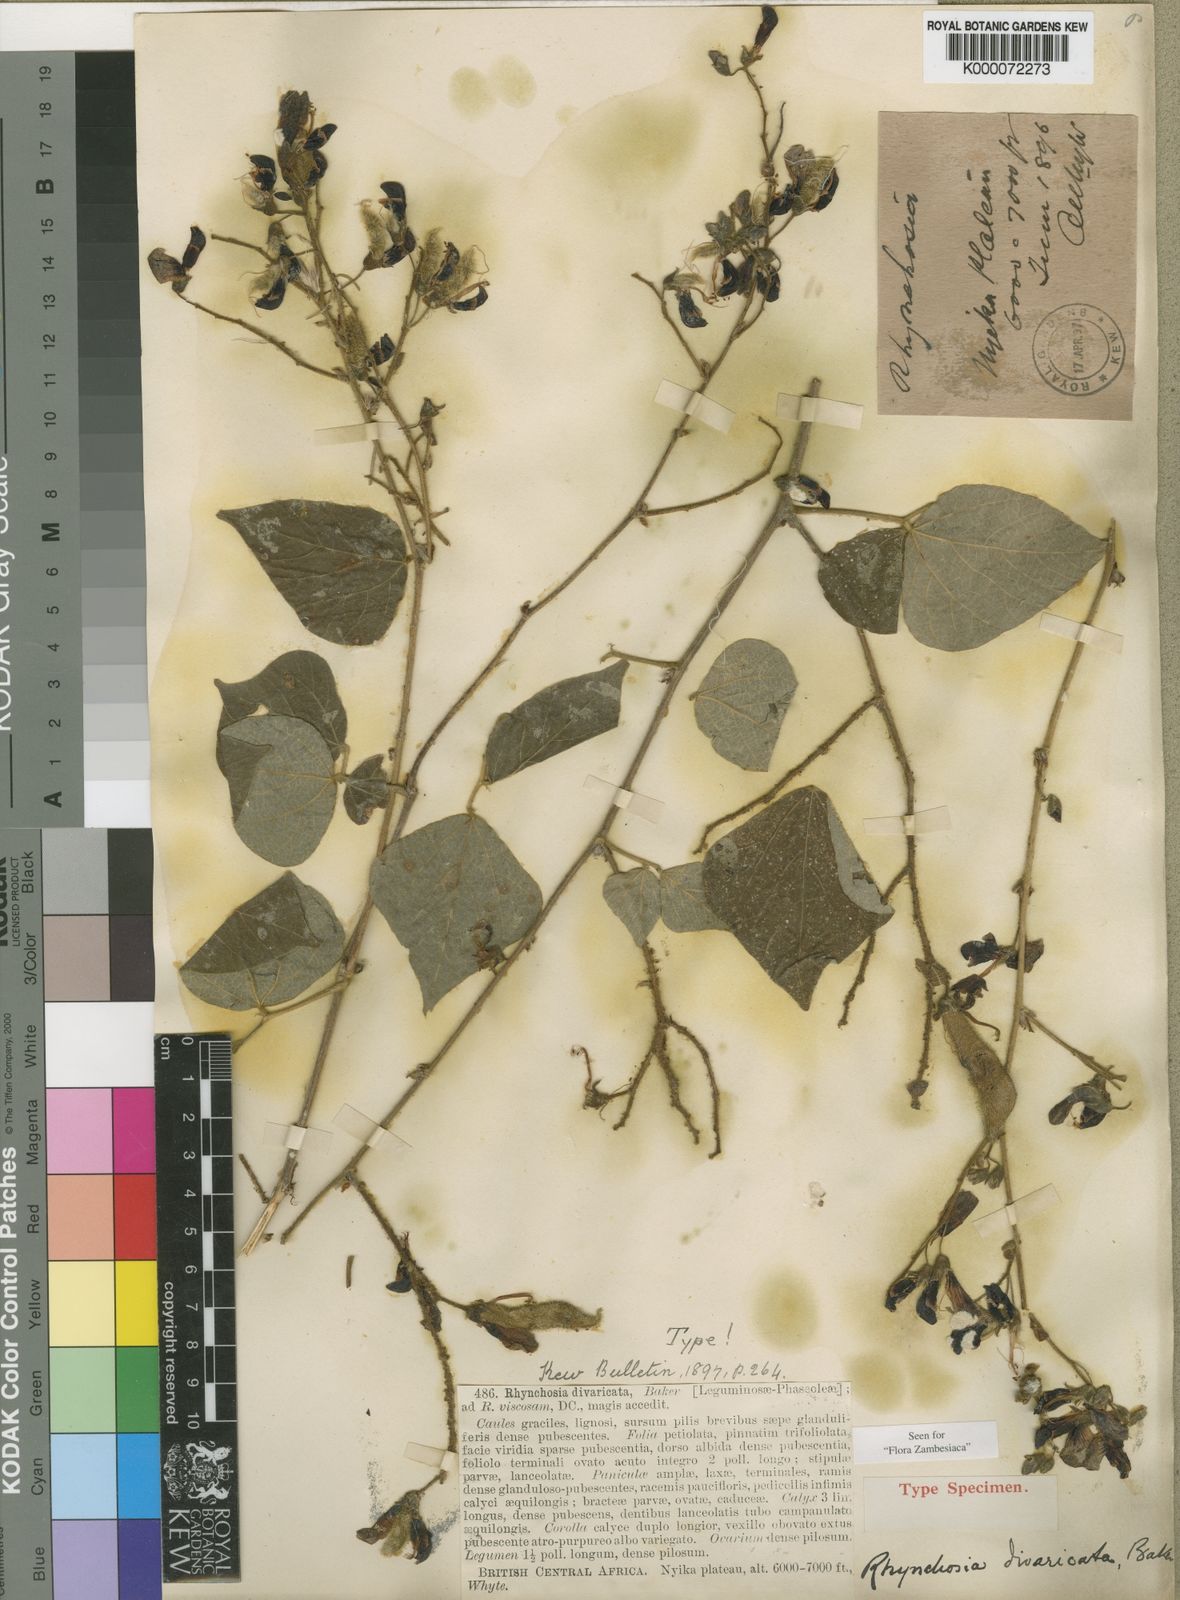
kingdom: Plantae
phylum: Tracheophyta
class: Magnoliopsida
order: Fabales
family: Fabaceae
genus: Rhynchosia
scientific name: Rhynchosia divaricata
